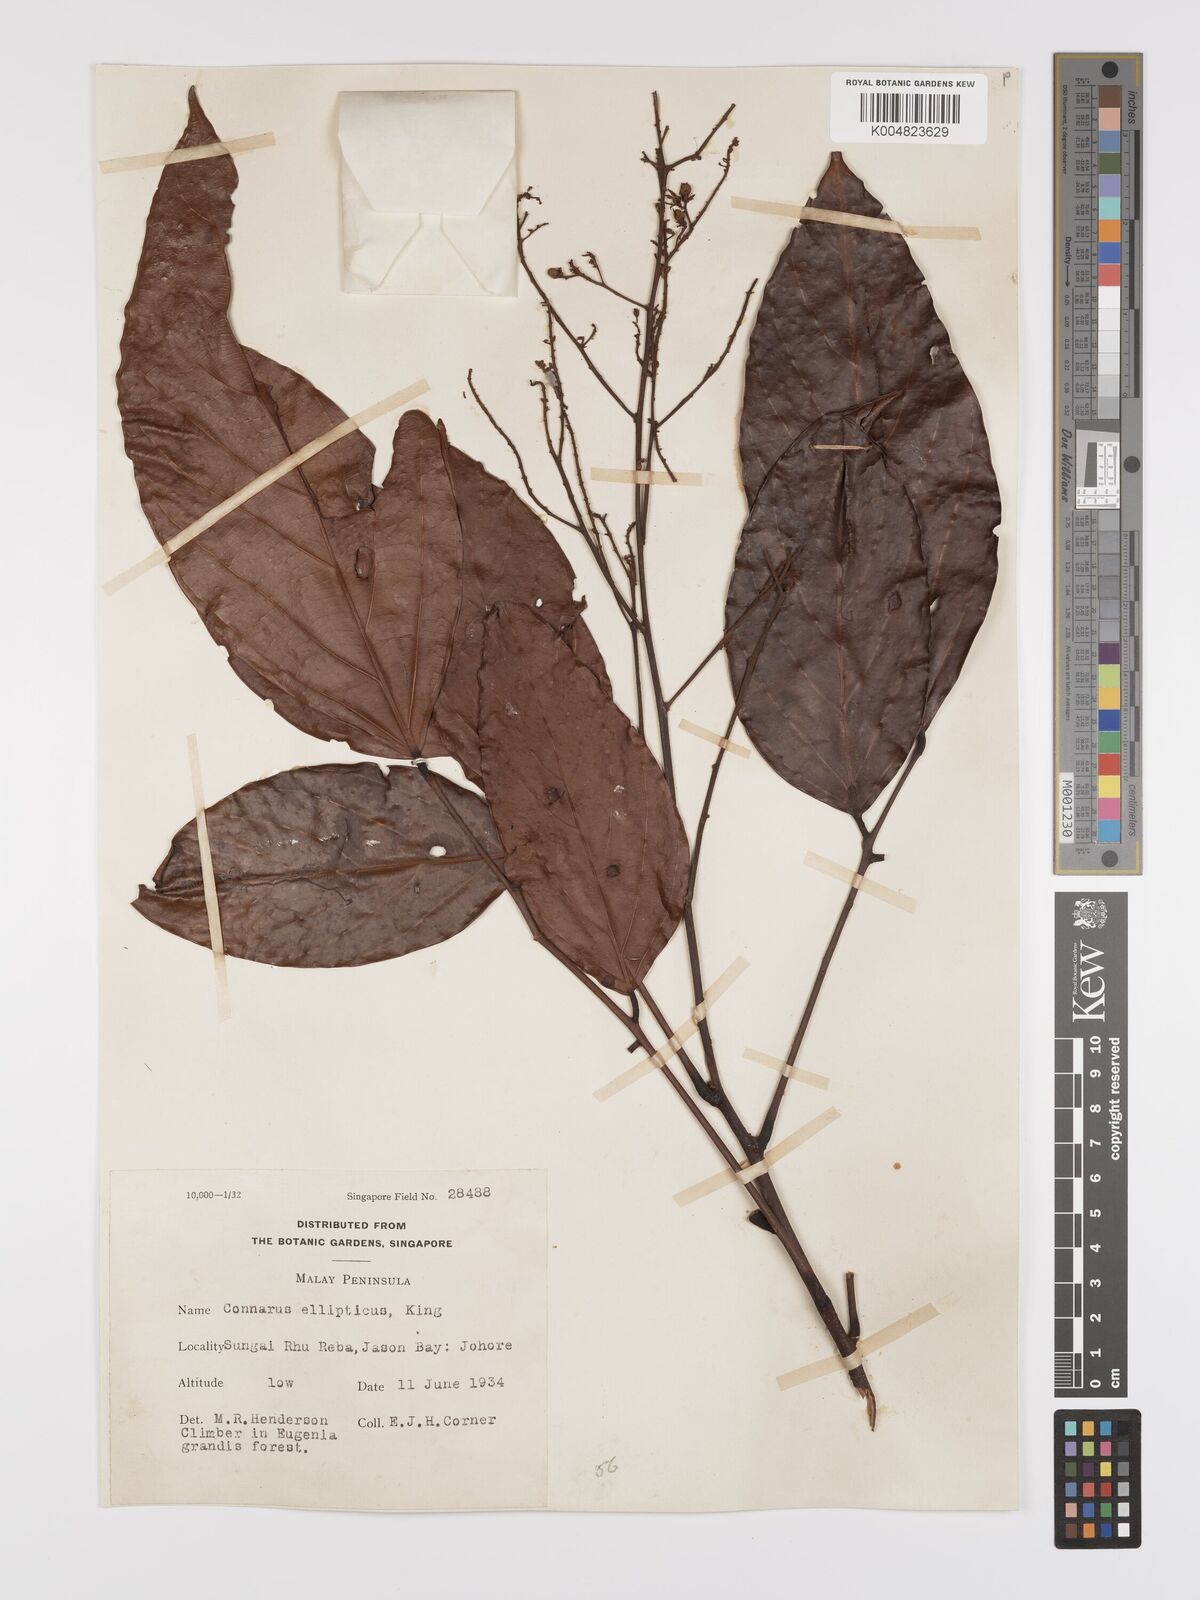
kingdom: Plantae
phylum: Tracheophyta
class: Magnoliopsida
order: Oxalidales
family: Connaraceae
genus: Connarus
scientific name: Connarus grandis
